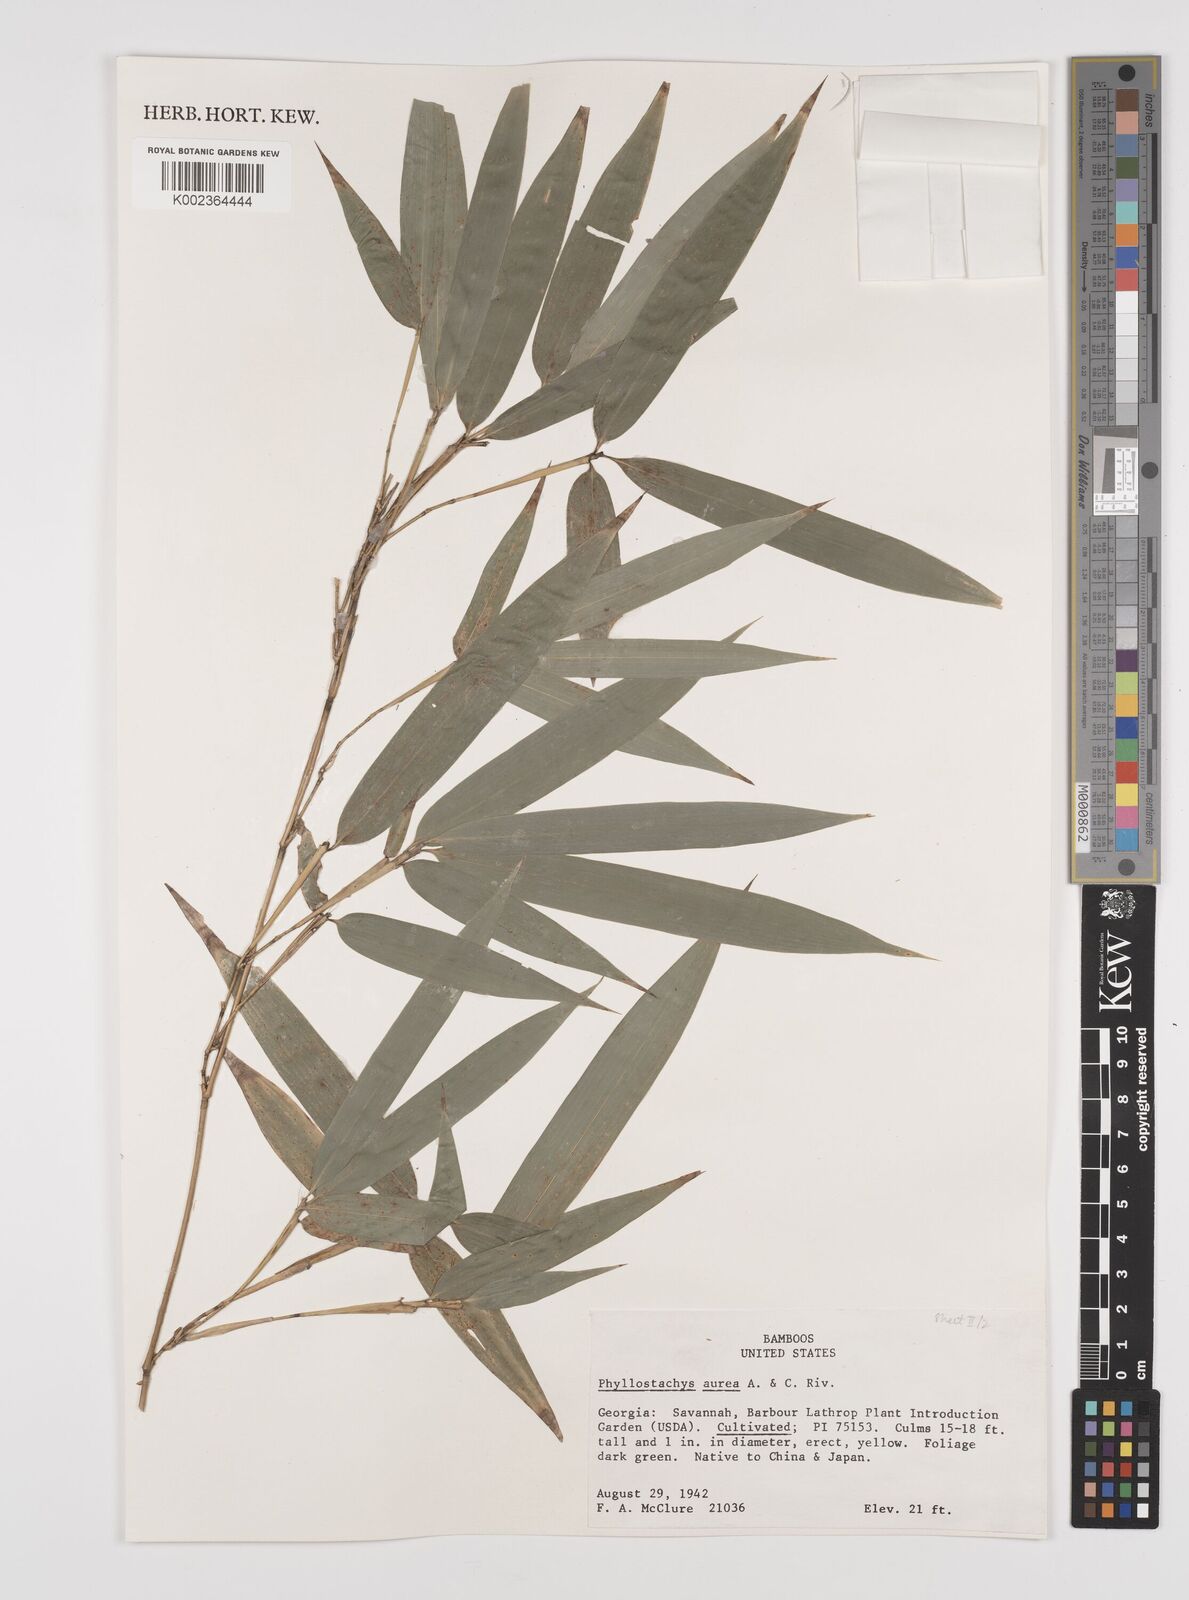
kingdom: Plantae
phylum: Tracheophyta
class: Liliopsida
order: Poales
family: Poaceae
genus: Phyllostachys
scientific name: Phyllostachys aurea
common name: Golden bamboo
